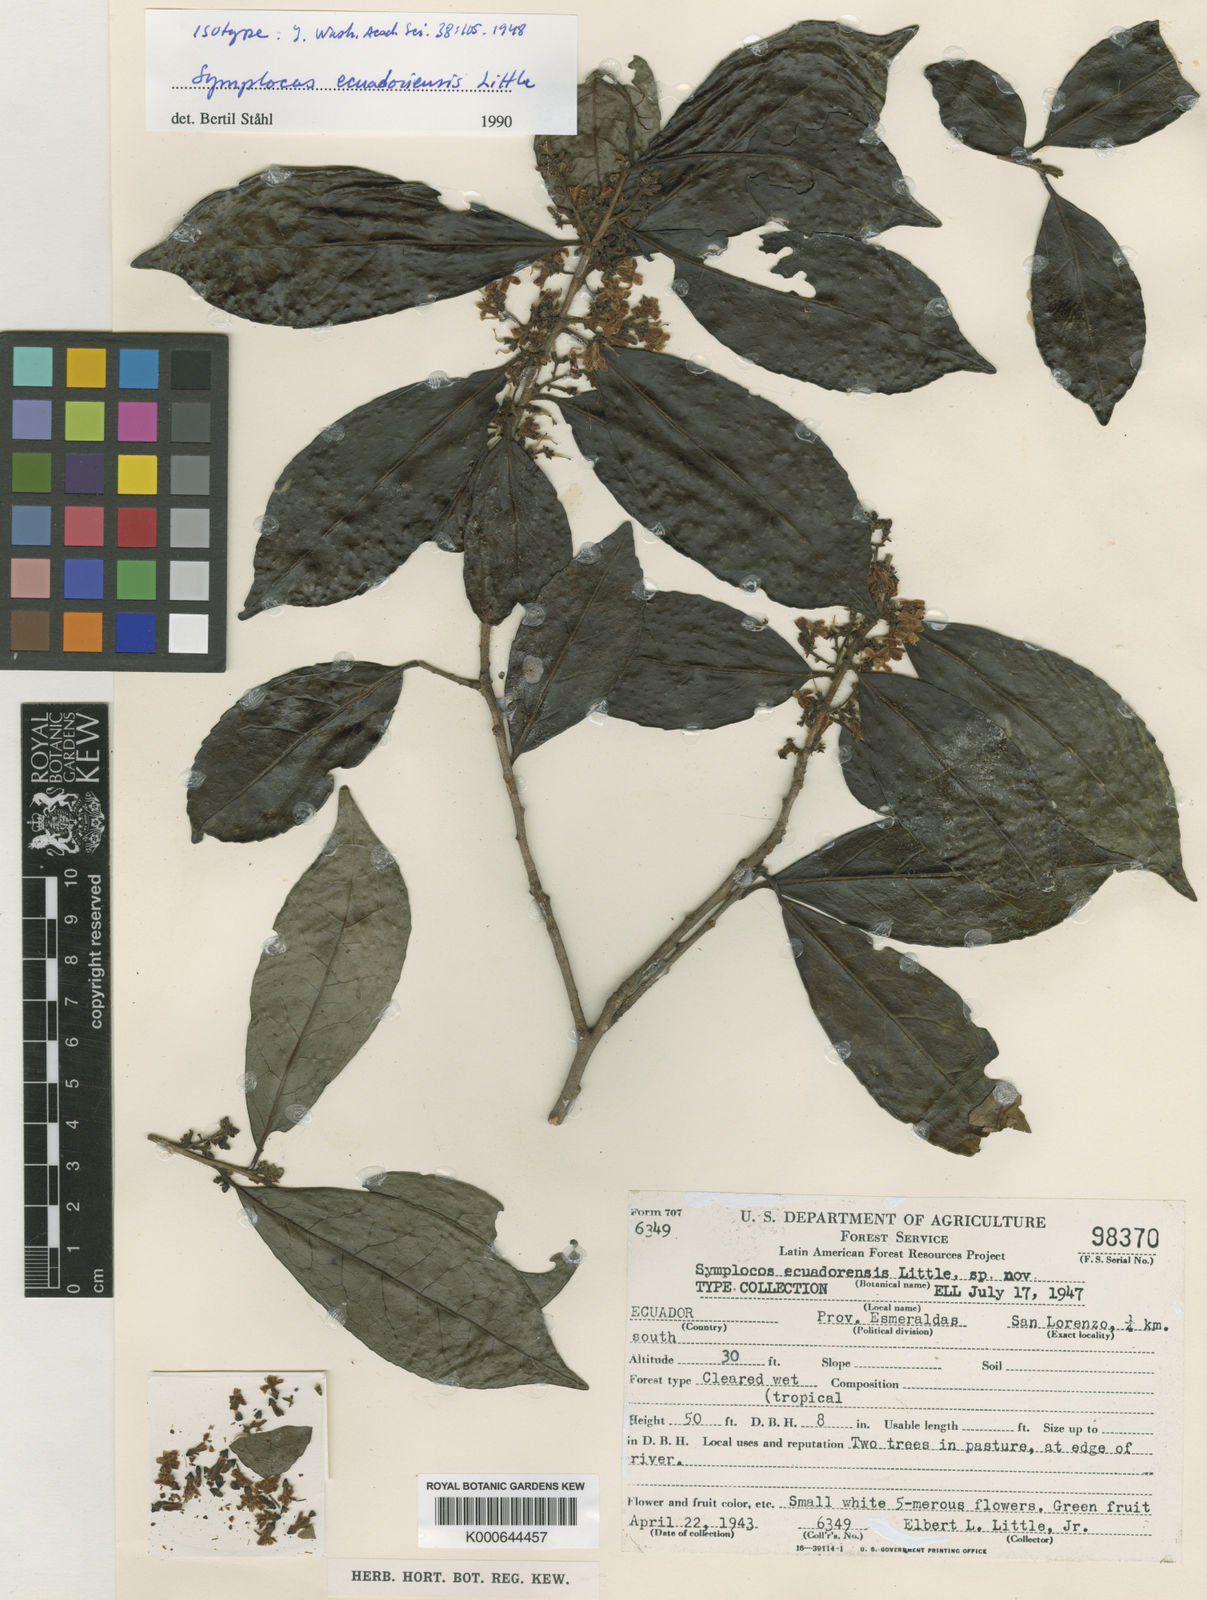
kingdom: Plantae
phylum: Tracheophyta
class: Magnoliopsida
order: Ericales
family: Symplocaceae
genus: Symplocos
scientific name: Symplocos ecuadorensis
